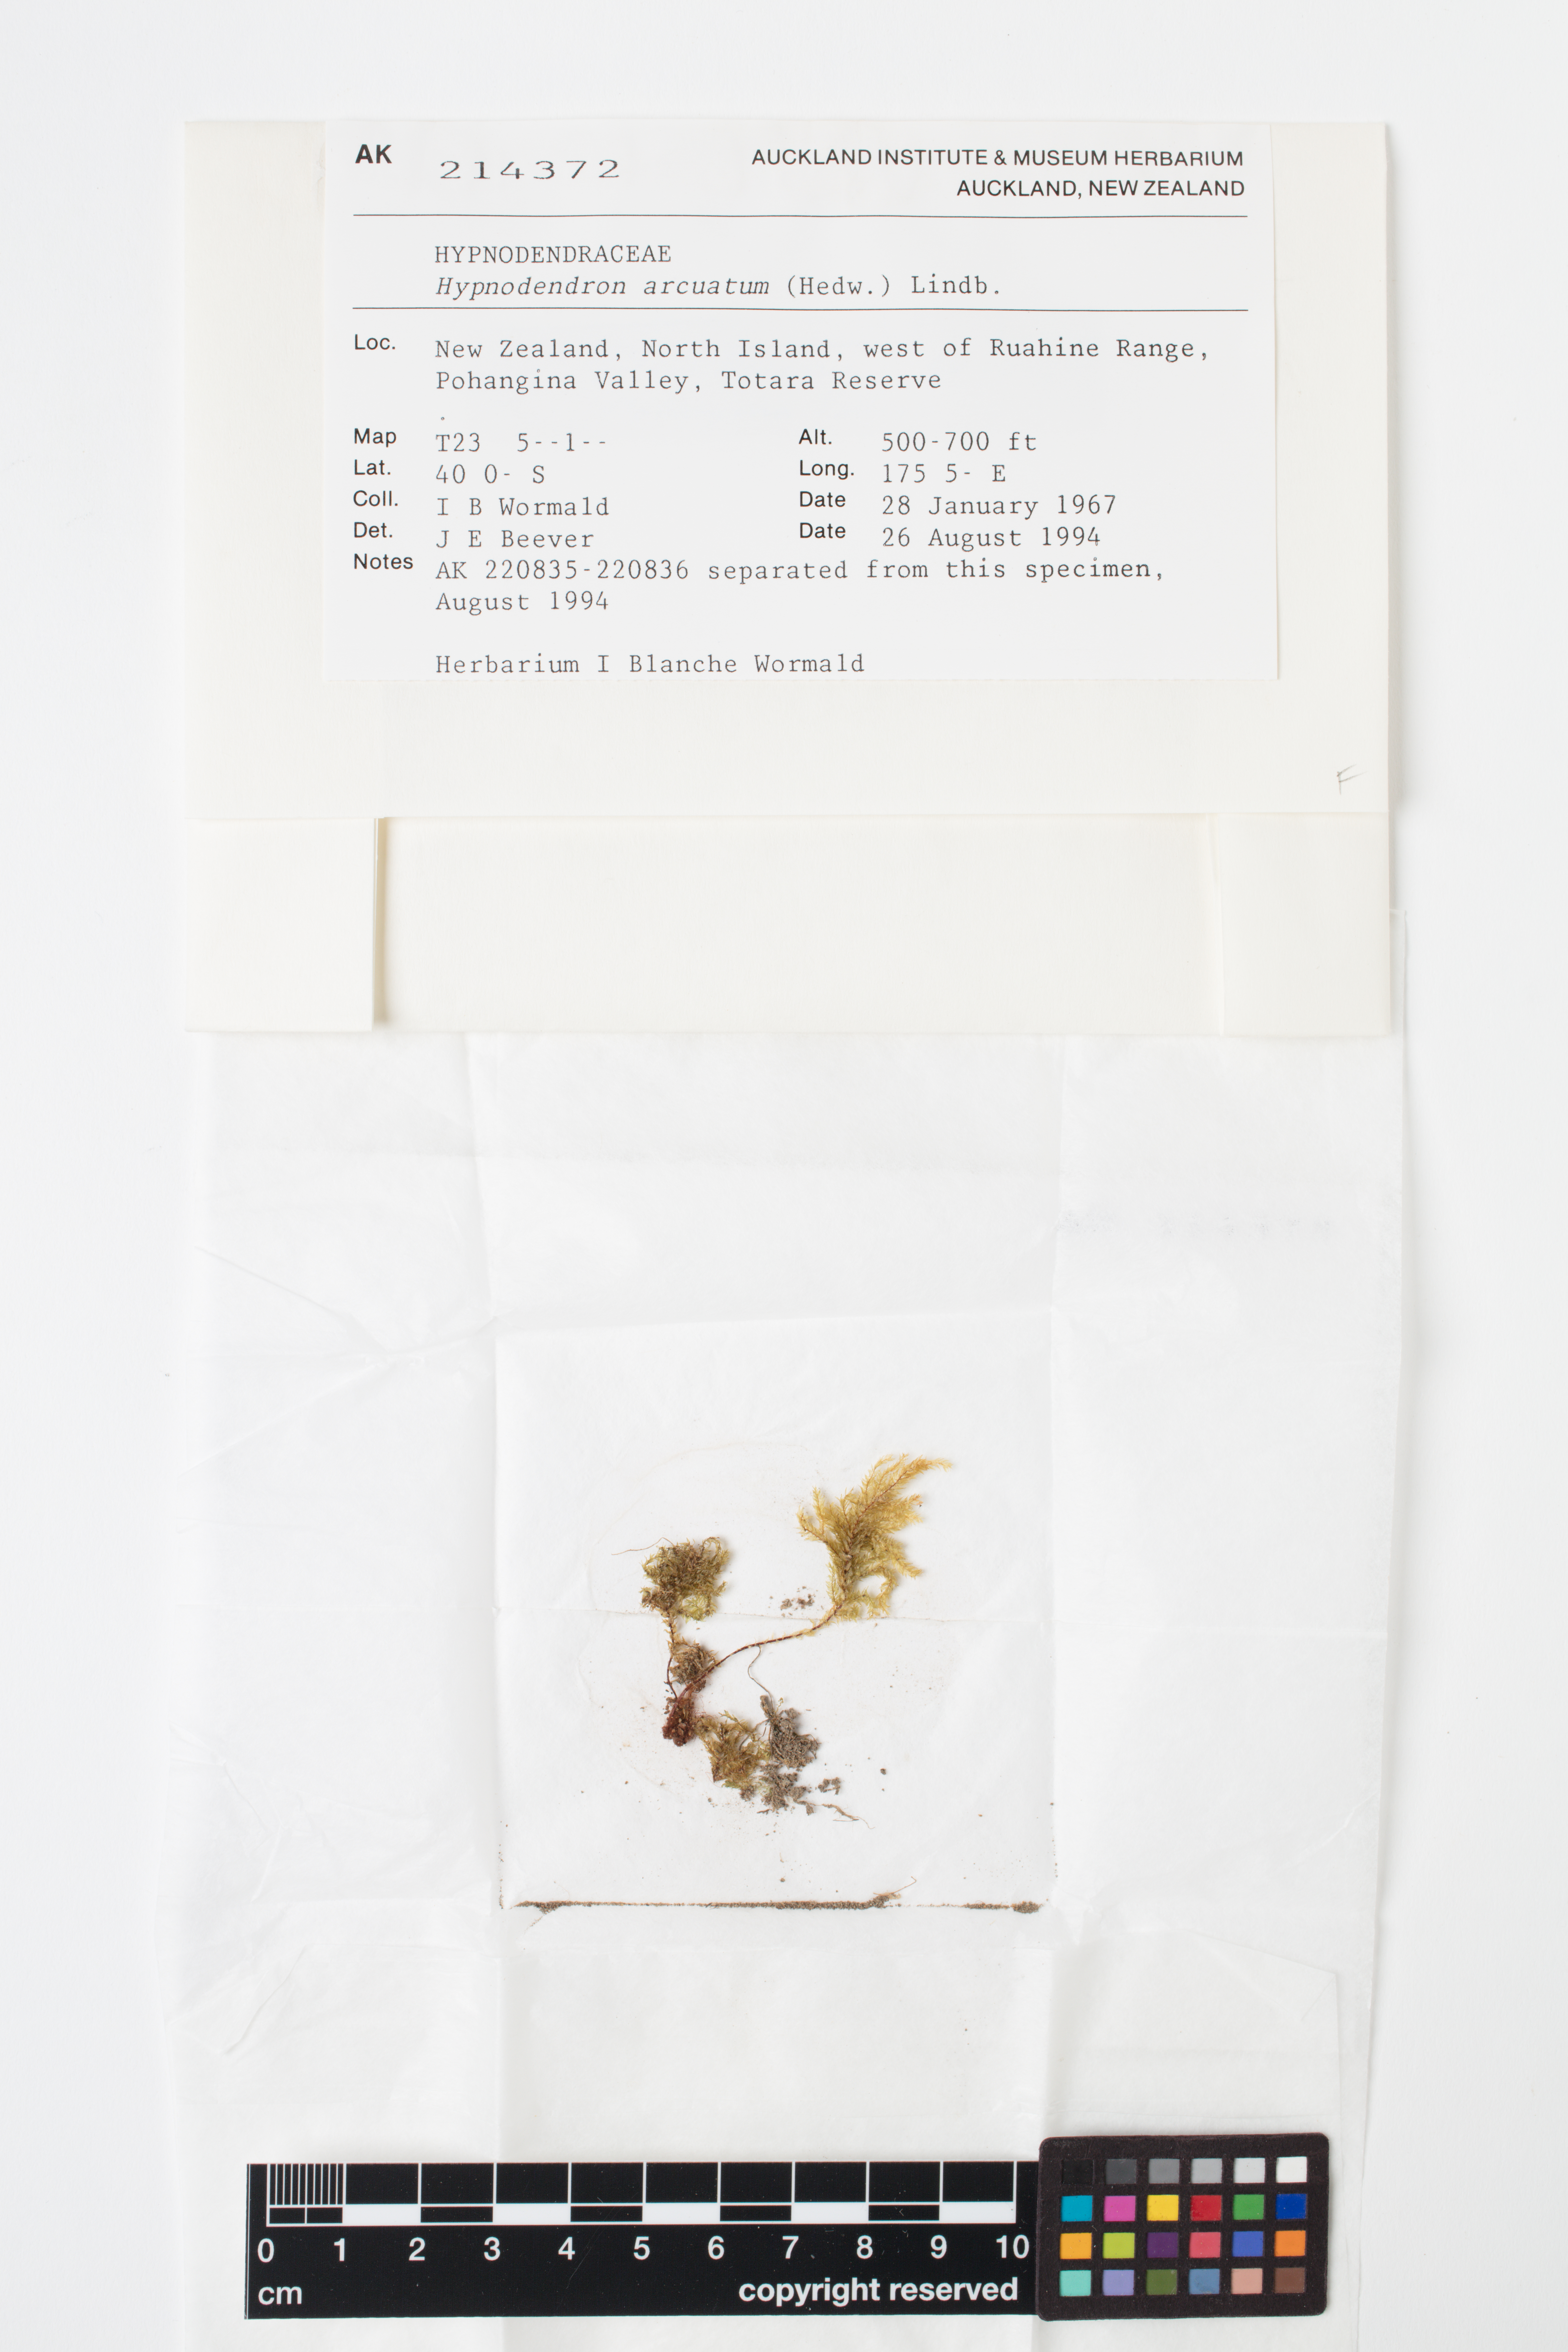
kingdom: Plantae
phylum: Bryophyta
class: Bryopsida
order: Hypnodendrales
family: Spiridentaceae
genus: Hypnodendron
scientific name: Hypnodendron arcuatum
